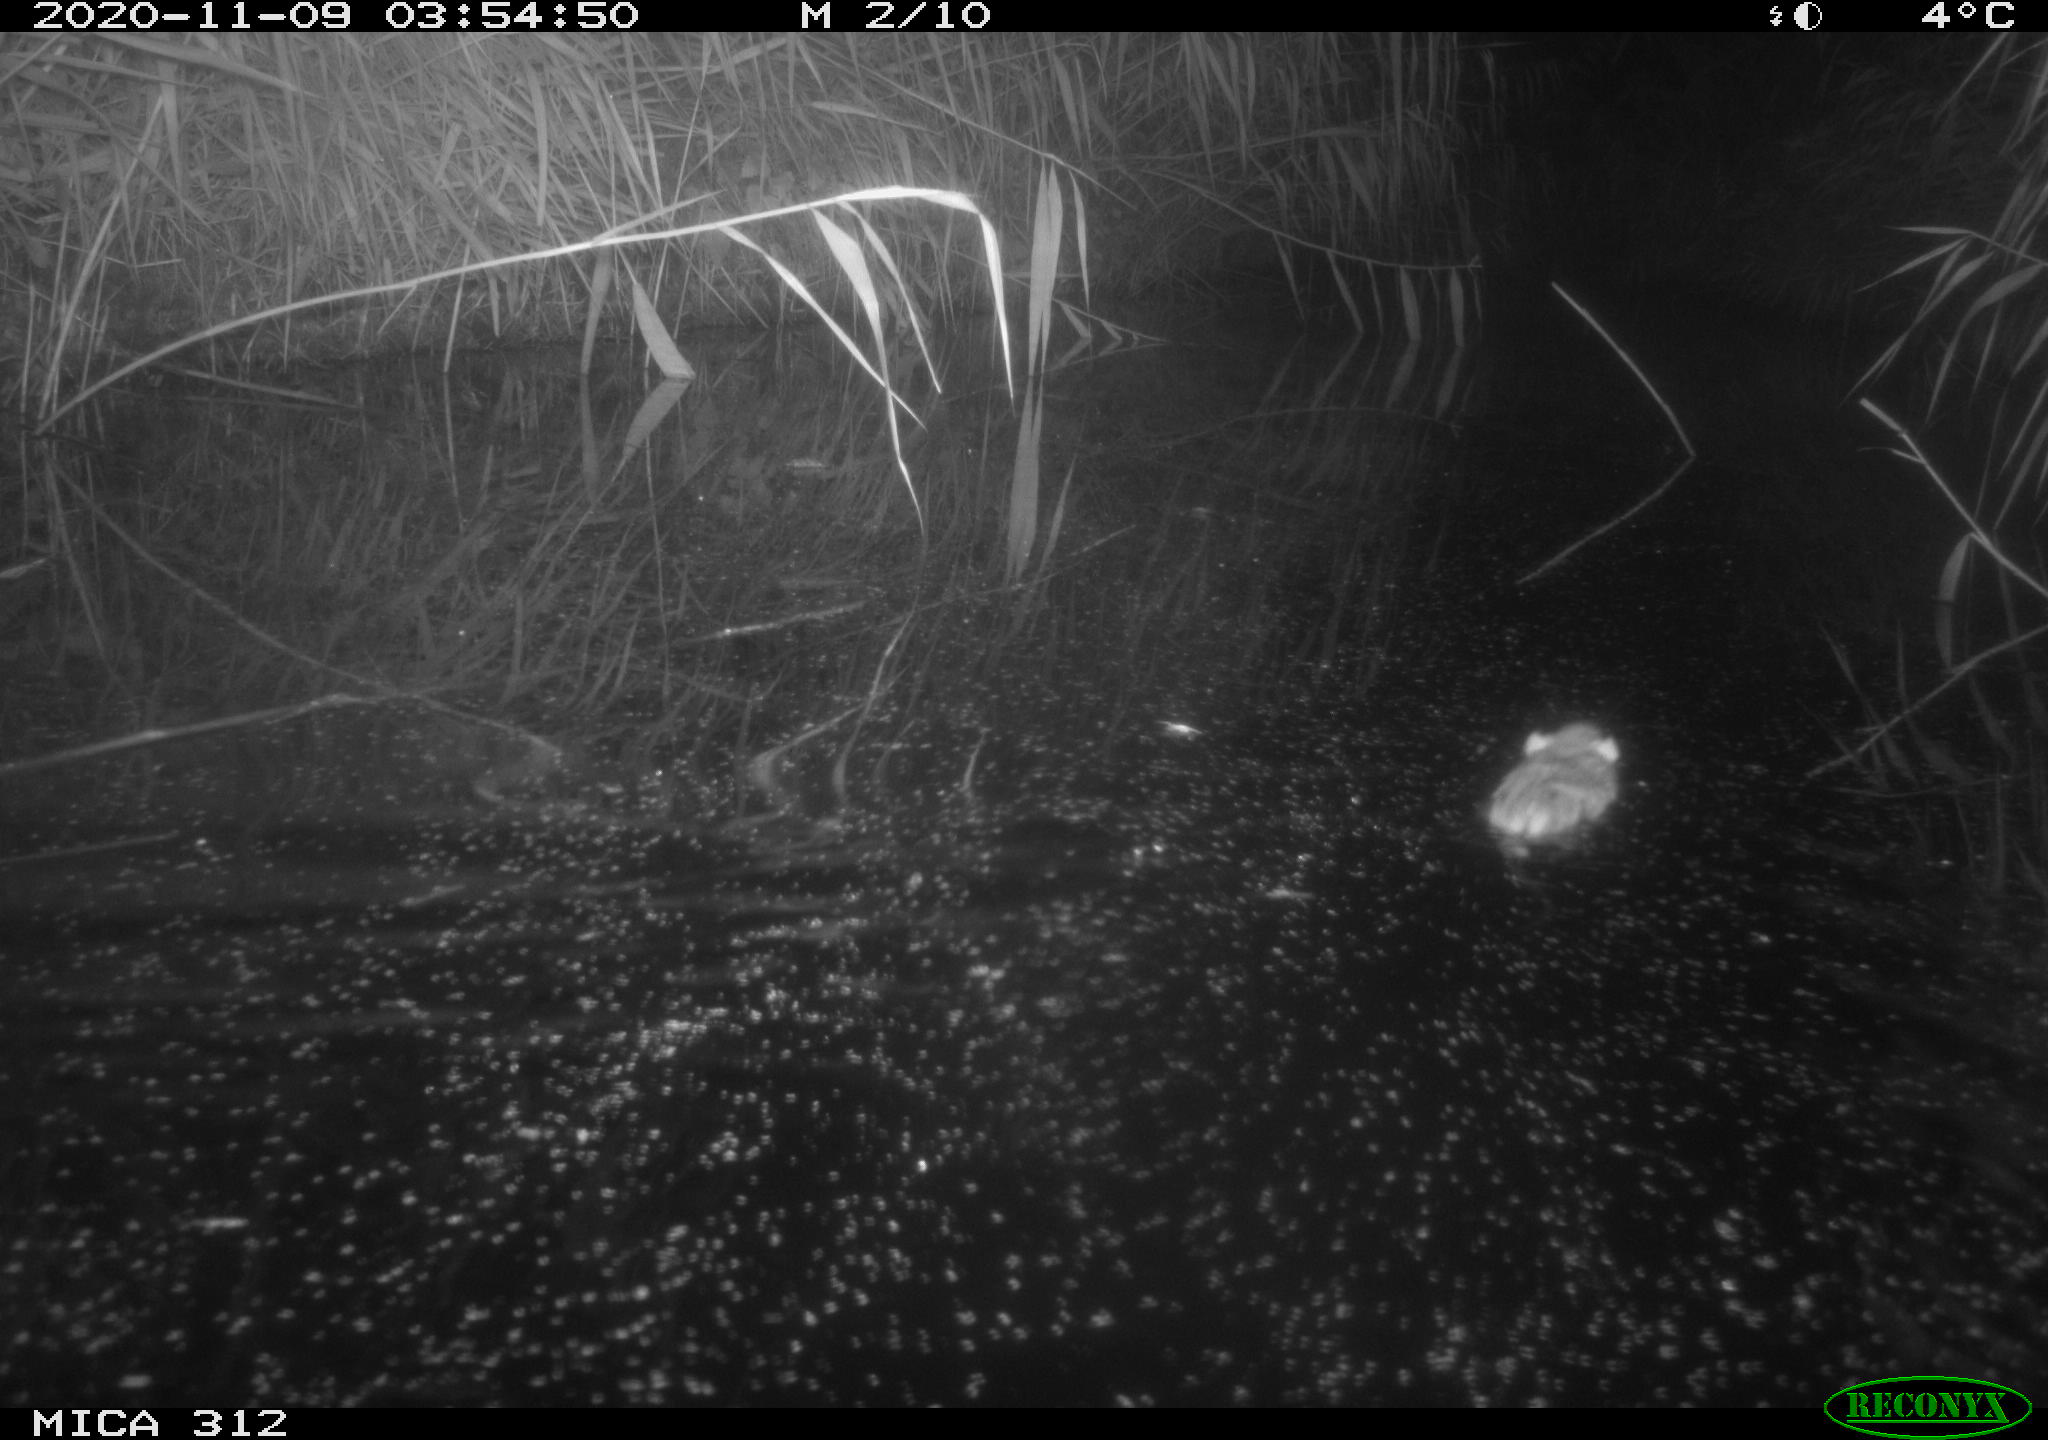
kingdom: Animalia
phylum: Chordata
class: Mammalia
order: Rodentia
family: Muridae
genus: Rattus
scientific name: Rattus norvegicus
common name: Brown rat
